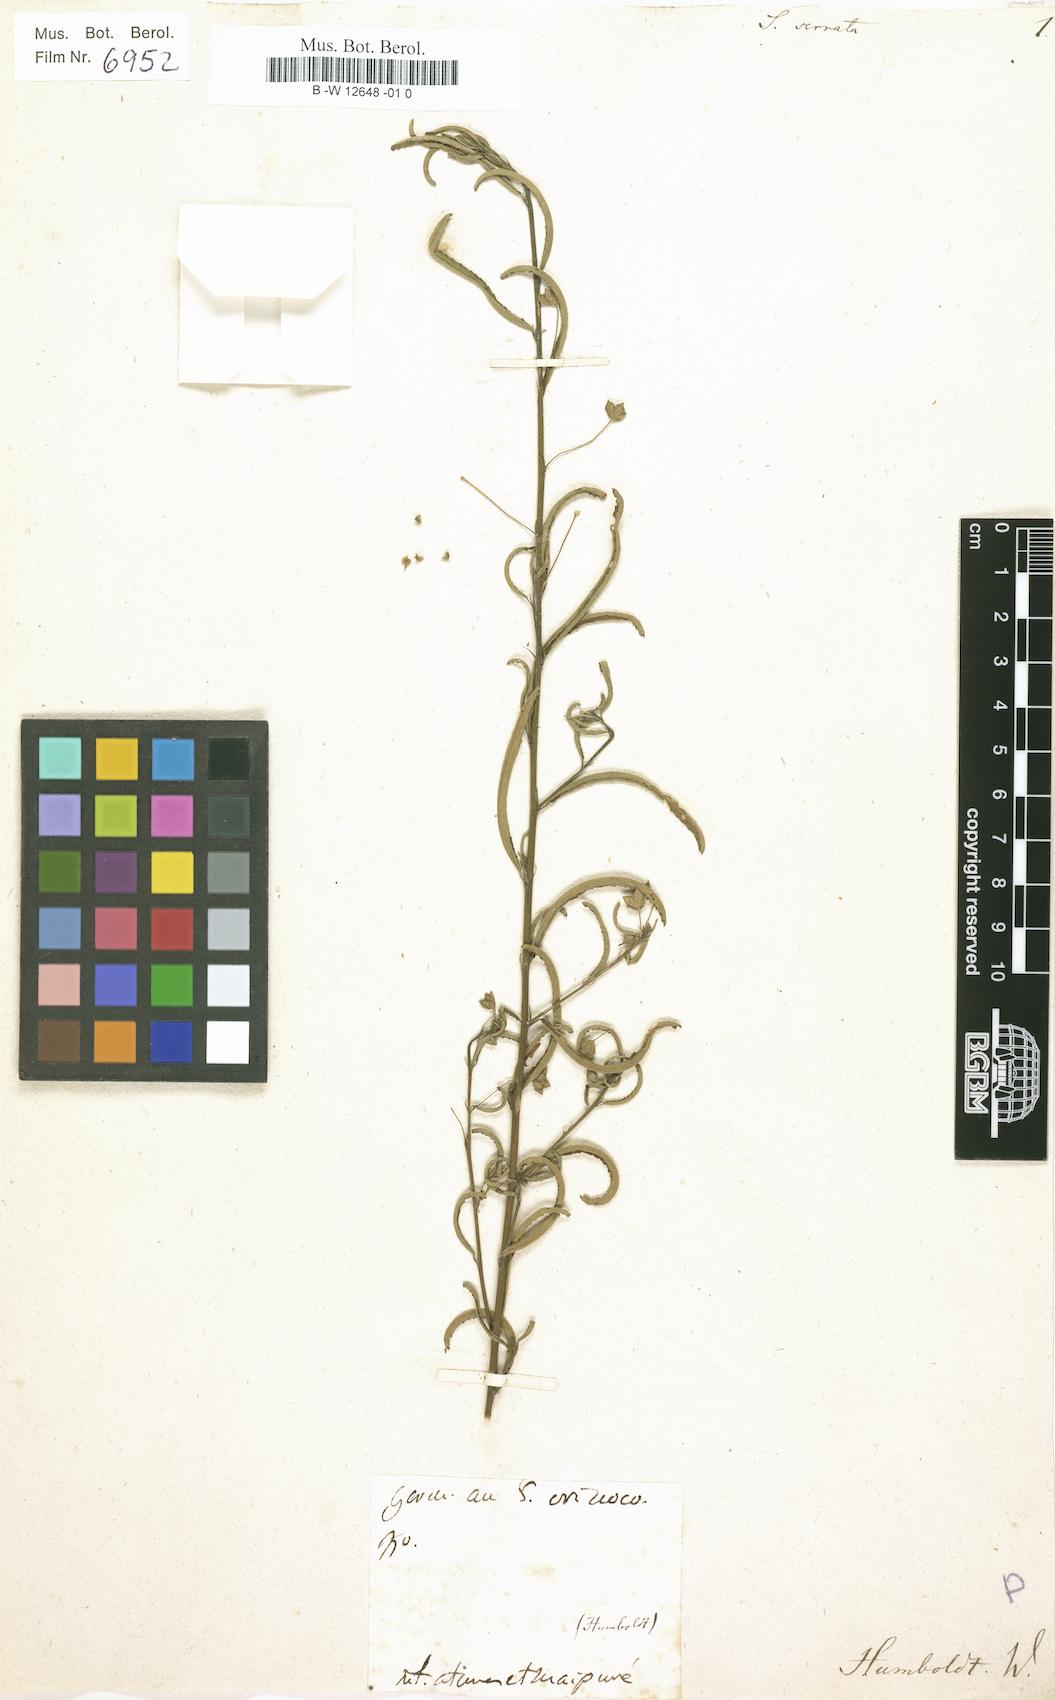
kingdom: Plantae
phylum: Tracheophyta
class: Magnoliopsida
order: Malvales
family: Malvaceae
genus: Sida
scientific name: Sida serrata
